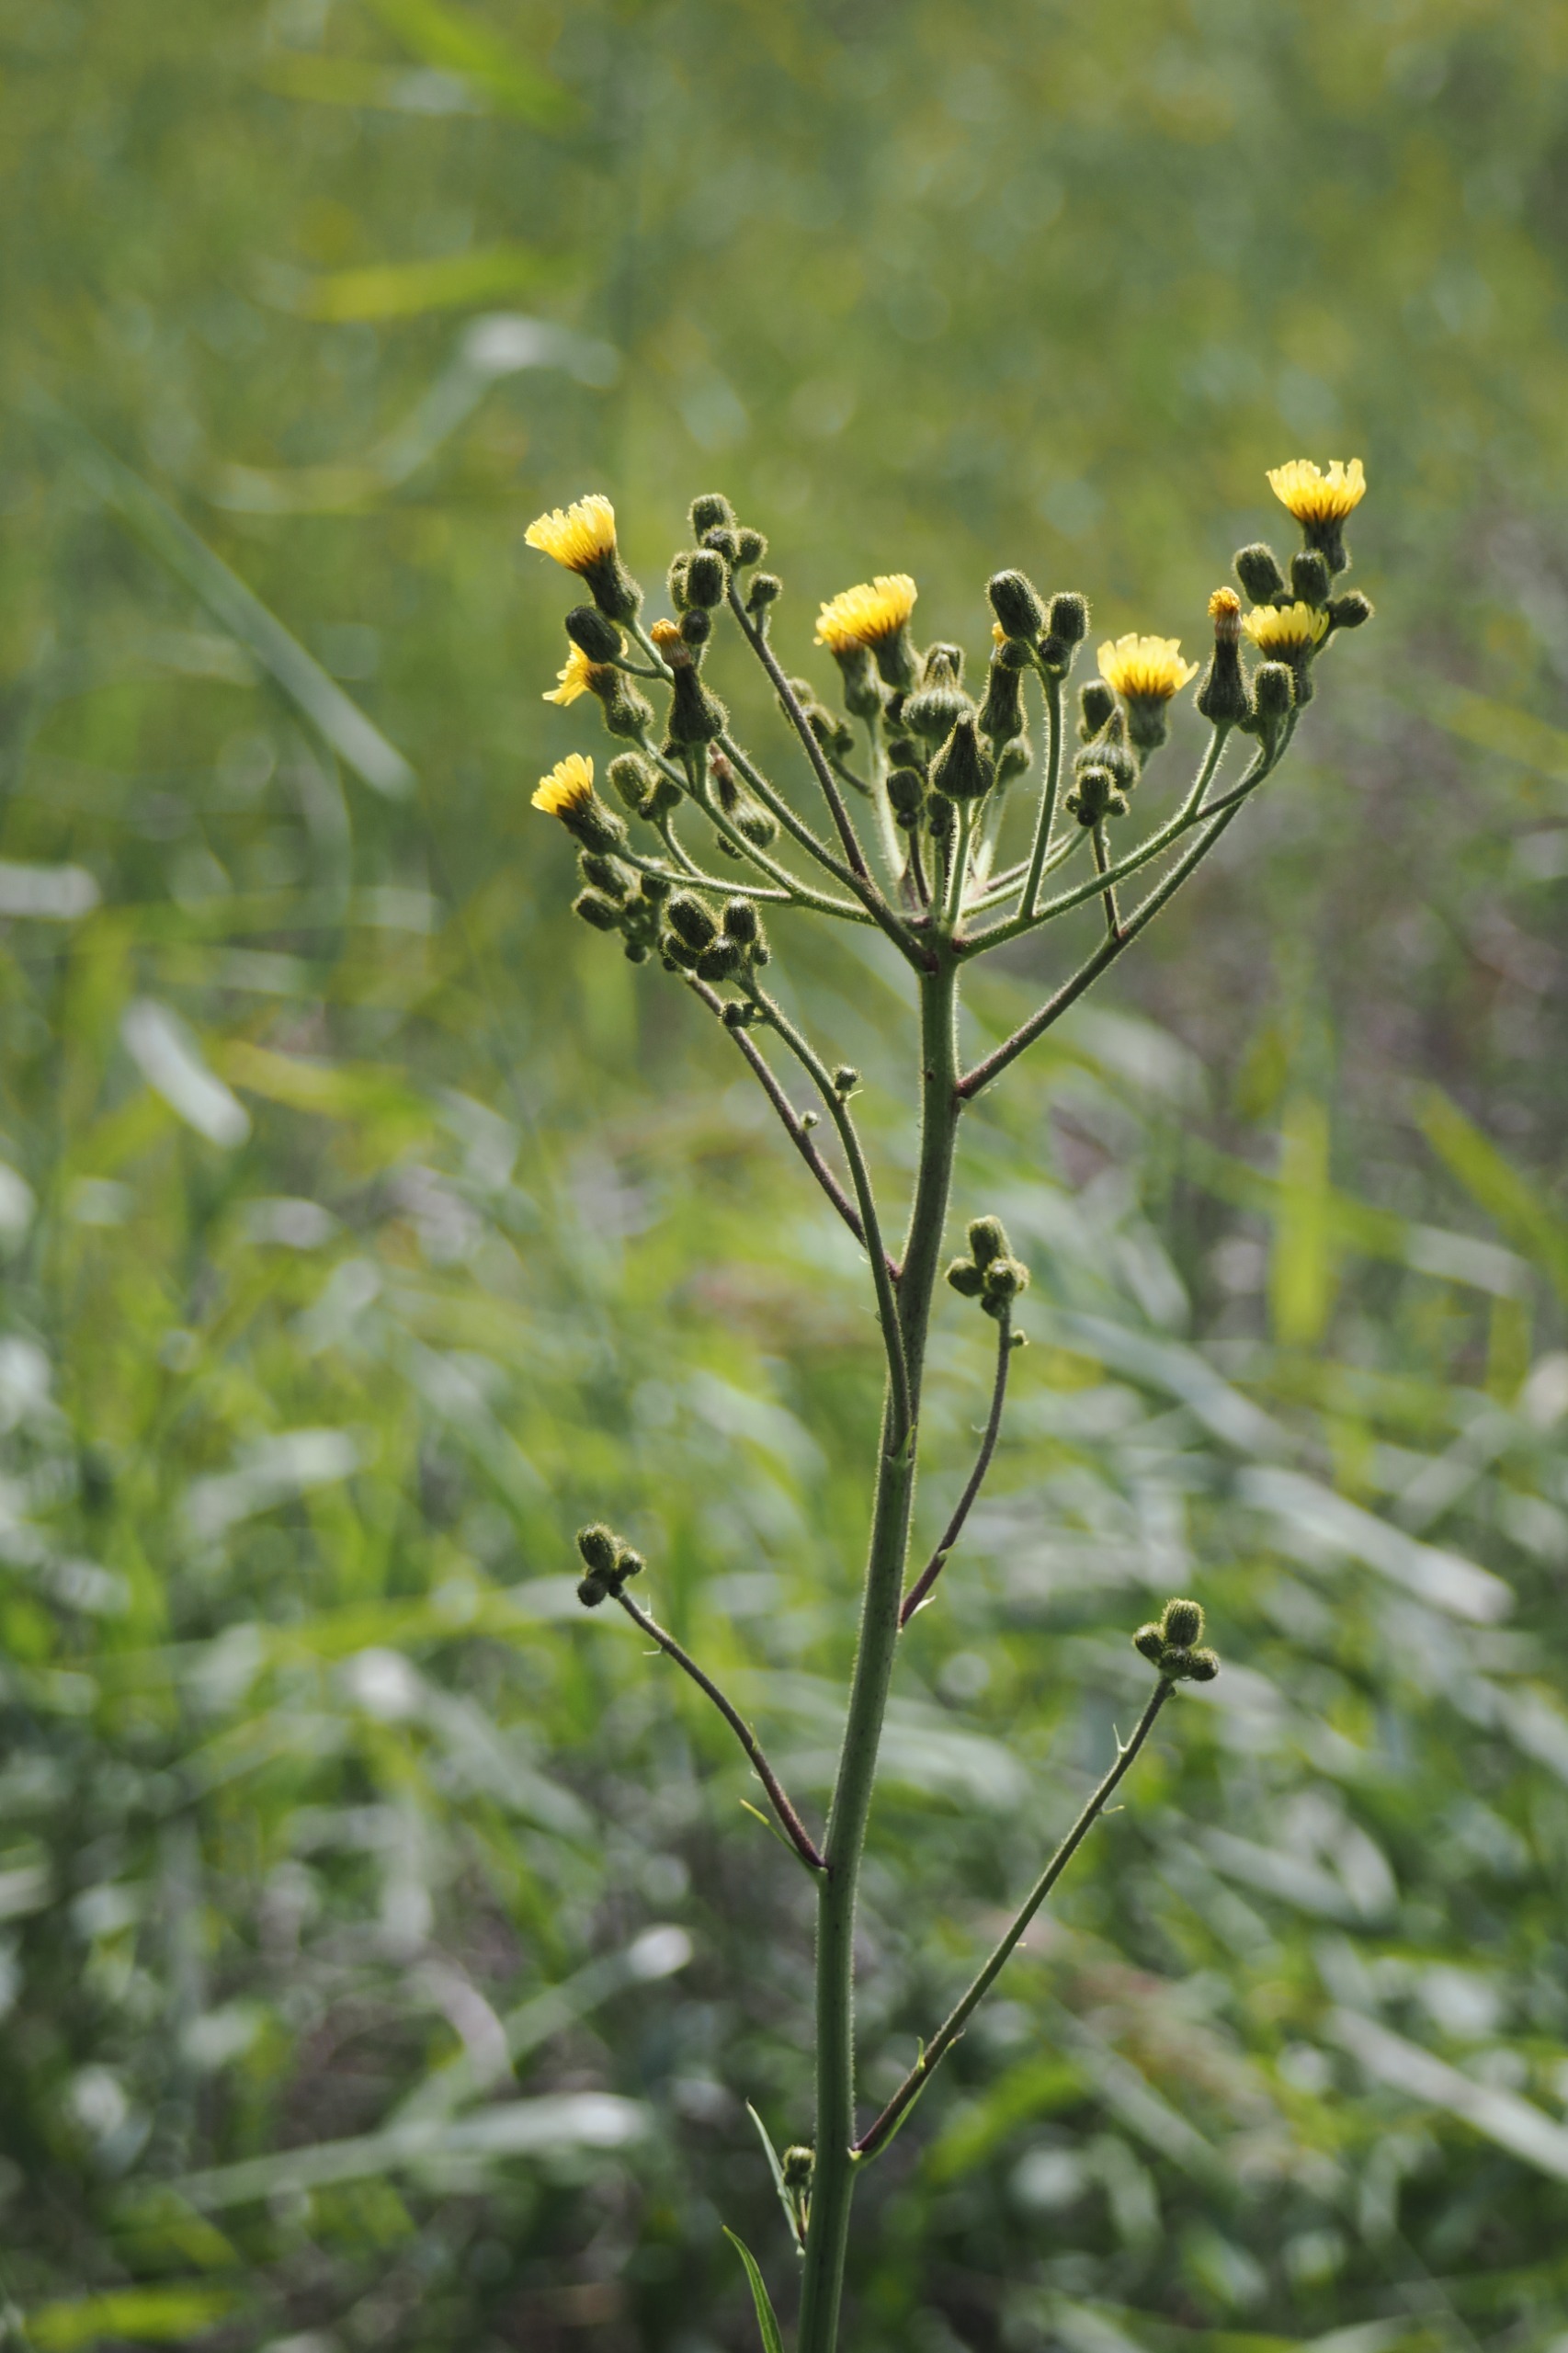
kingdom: Plantae
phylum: Tracheophyta
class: Magnoliopsida
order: Asterales
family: Asteraceae
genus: Sonchus
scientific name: Sonchus palustris
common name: Kær-svinemælk
